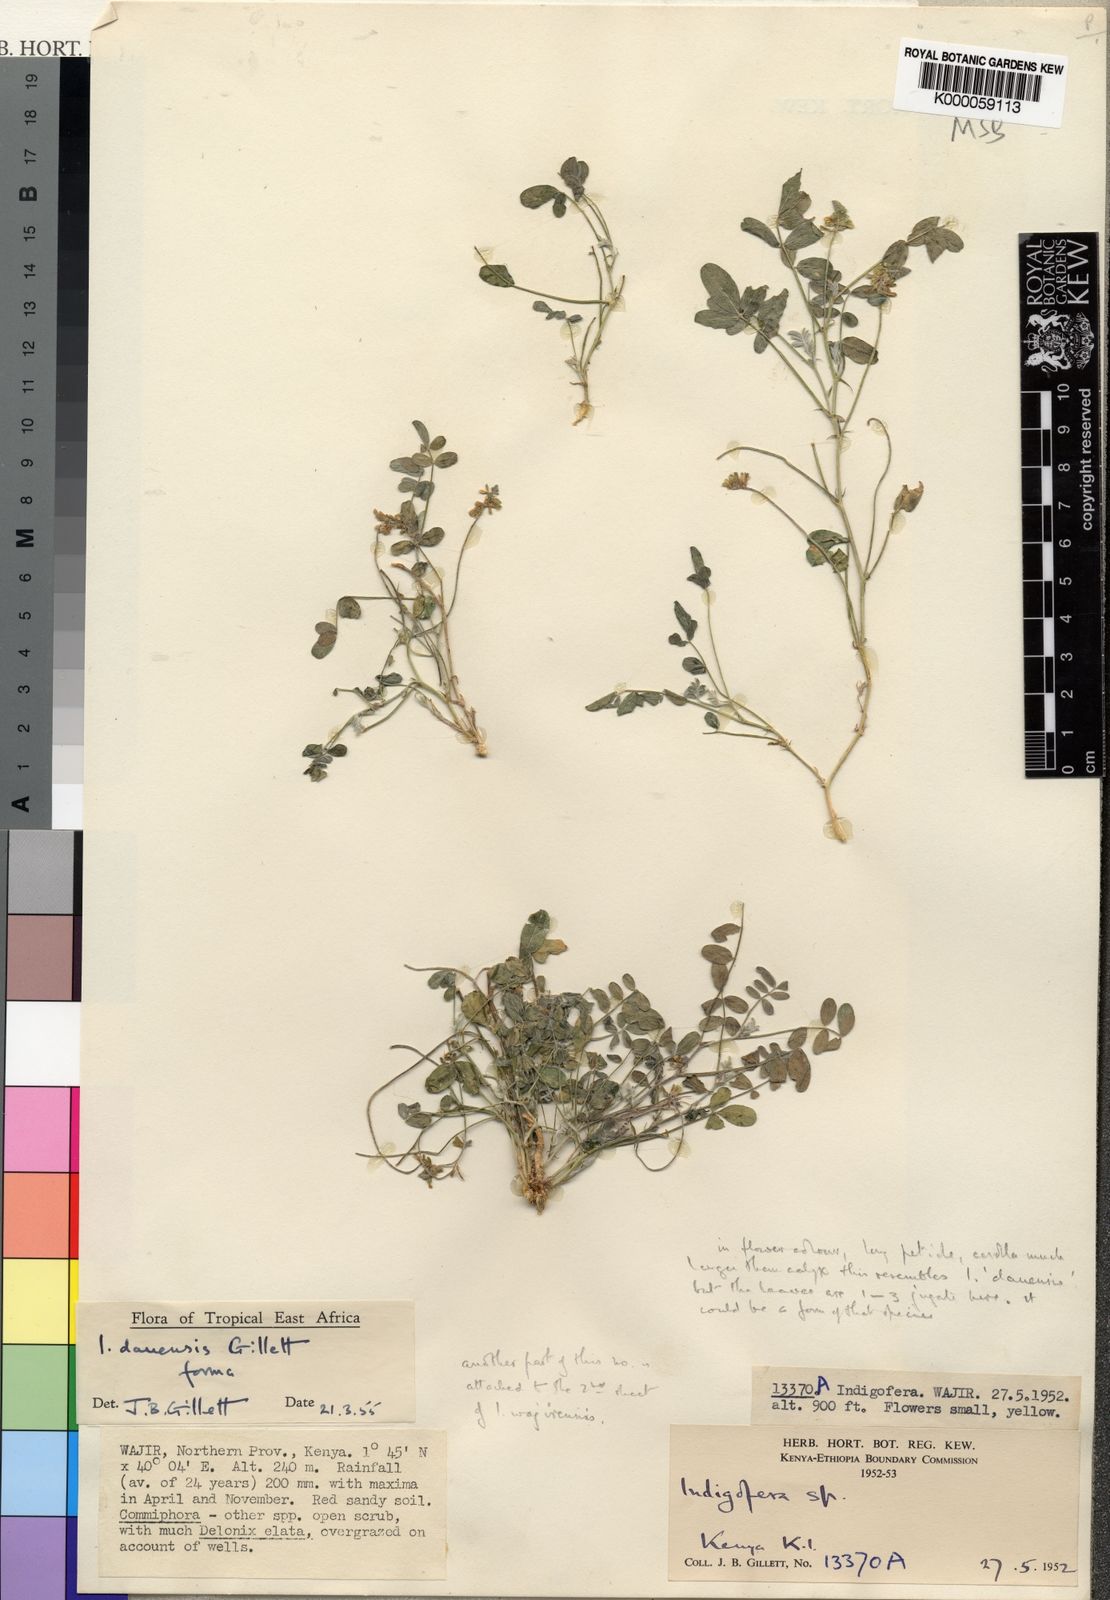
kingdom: Plantae
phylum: Tracheophyta
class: Magnoliopsida
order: Fabales
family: Fabaceae
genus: Indigofera
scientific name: Indigofera dauensis
